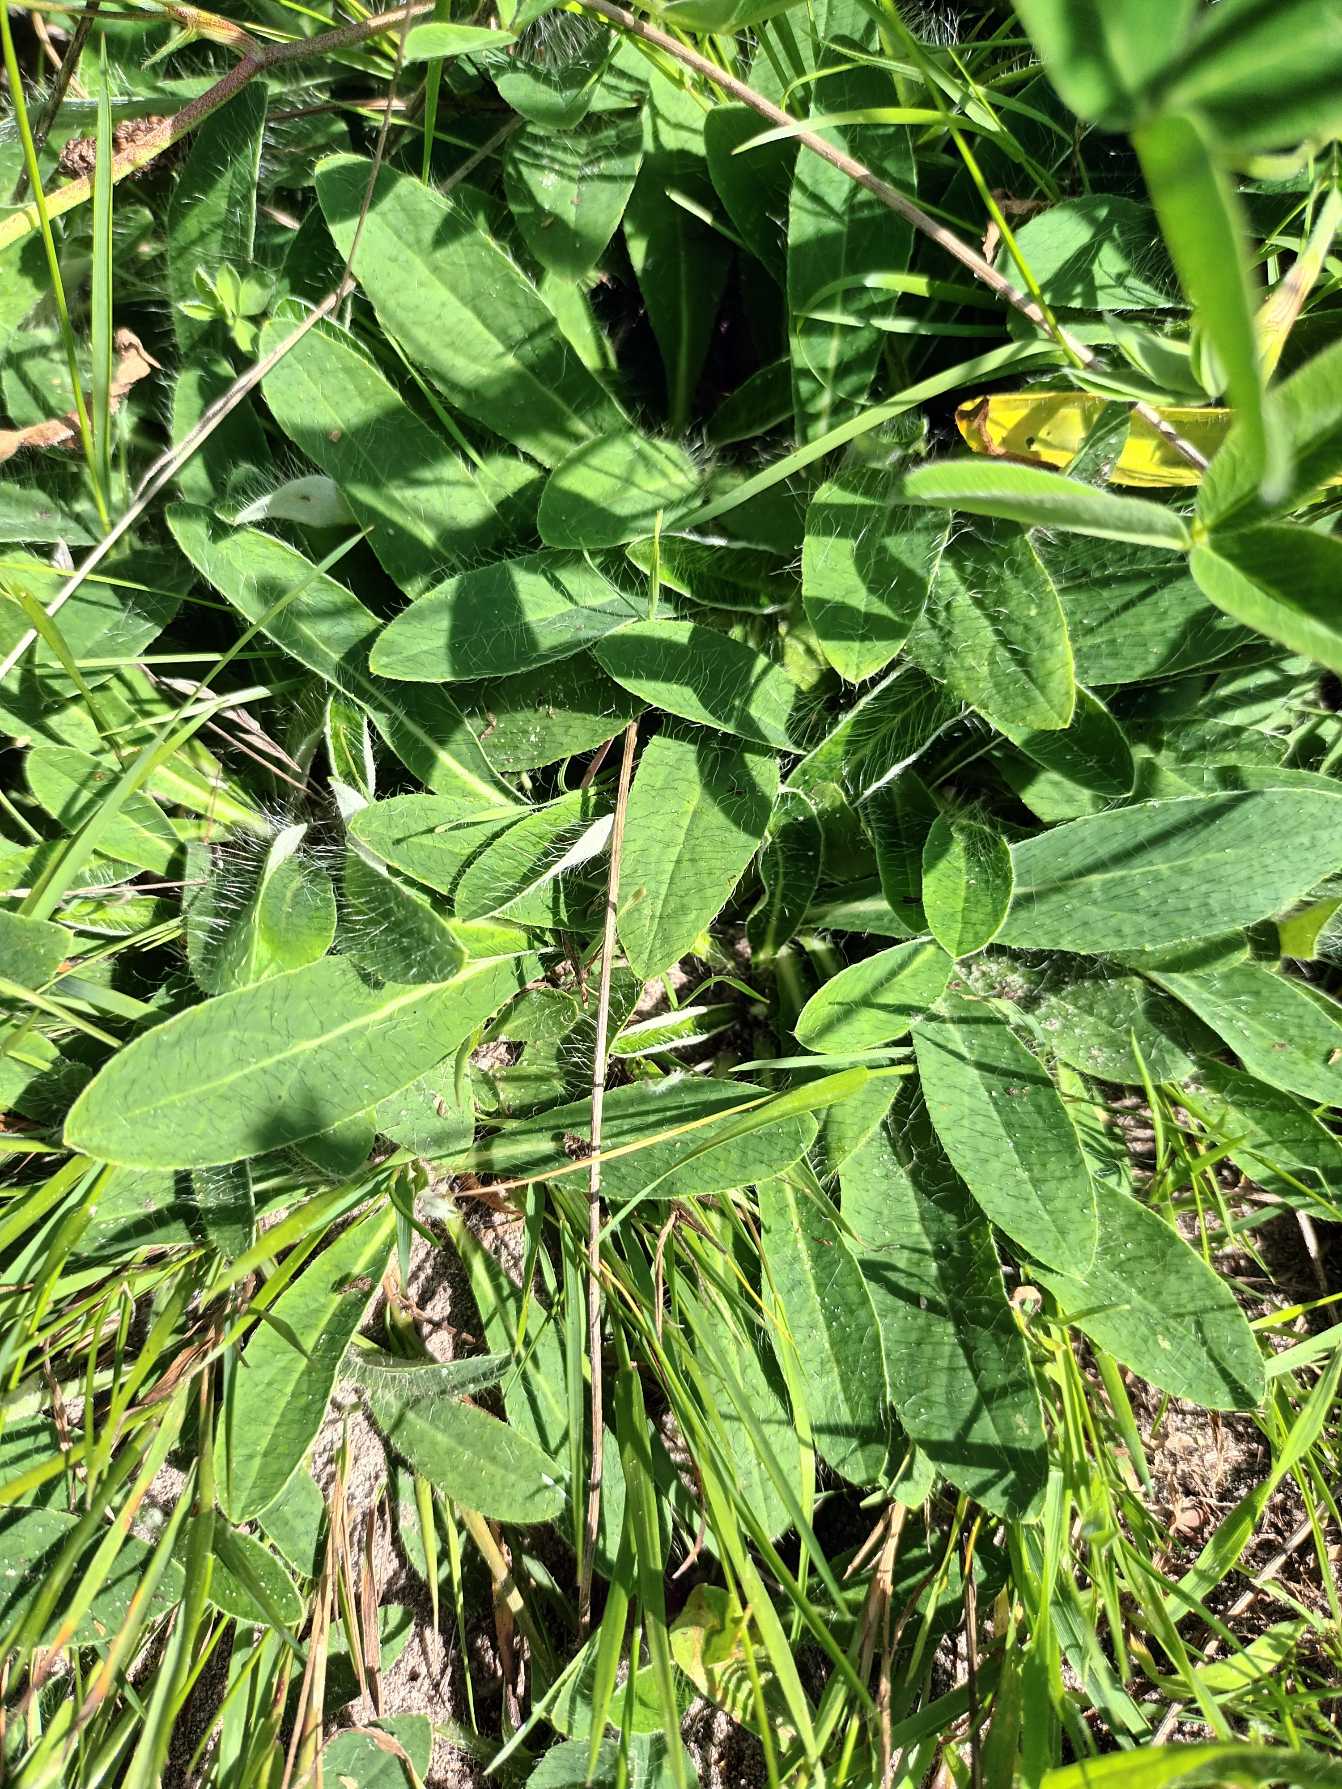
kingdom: Plantae
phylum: Tracheophyta
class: Magnoliopsida
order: Asterales
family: Asteraceae
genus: Pilosella
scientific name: Pilosella officinarum
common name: Håret høgeurt
